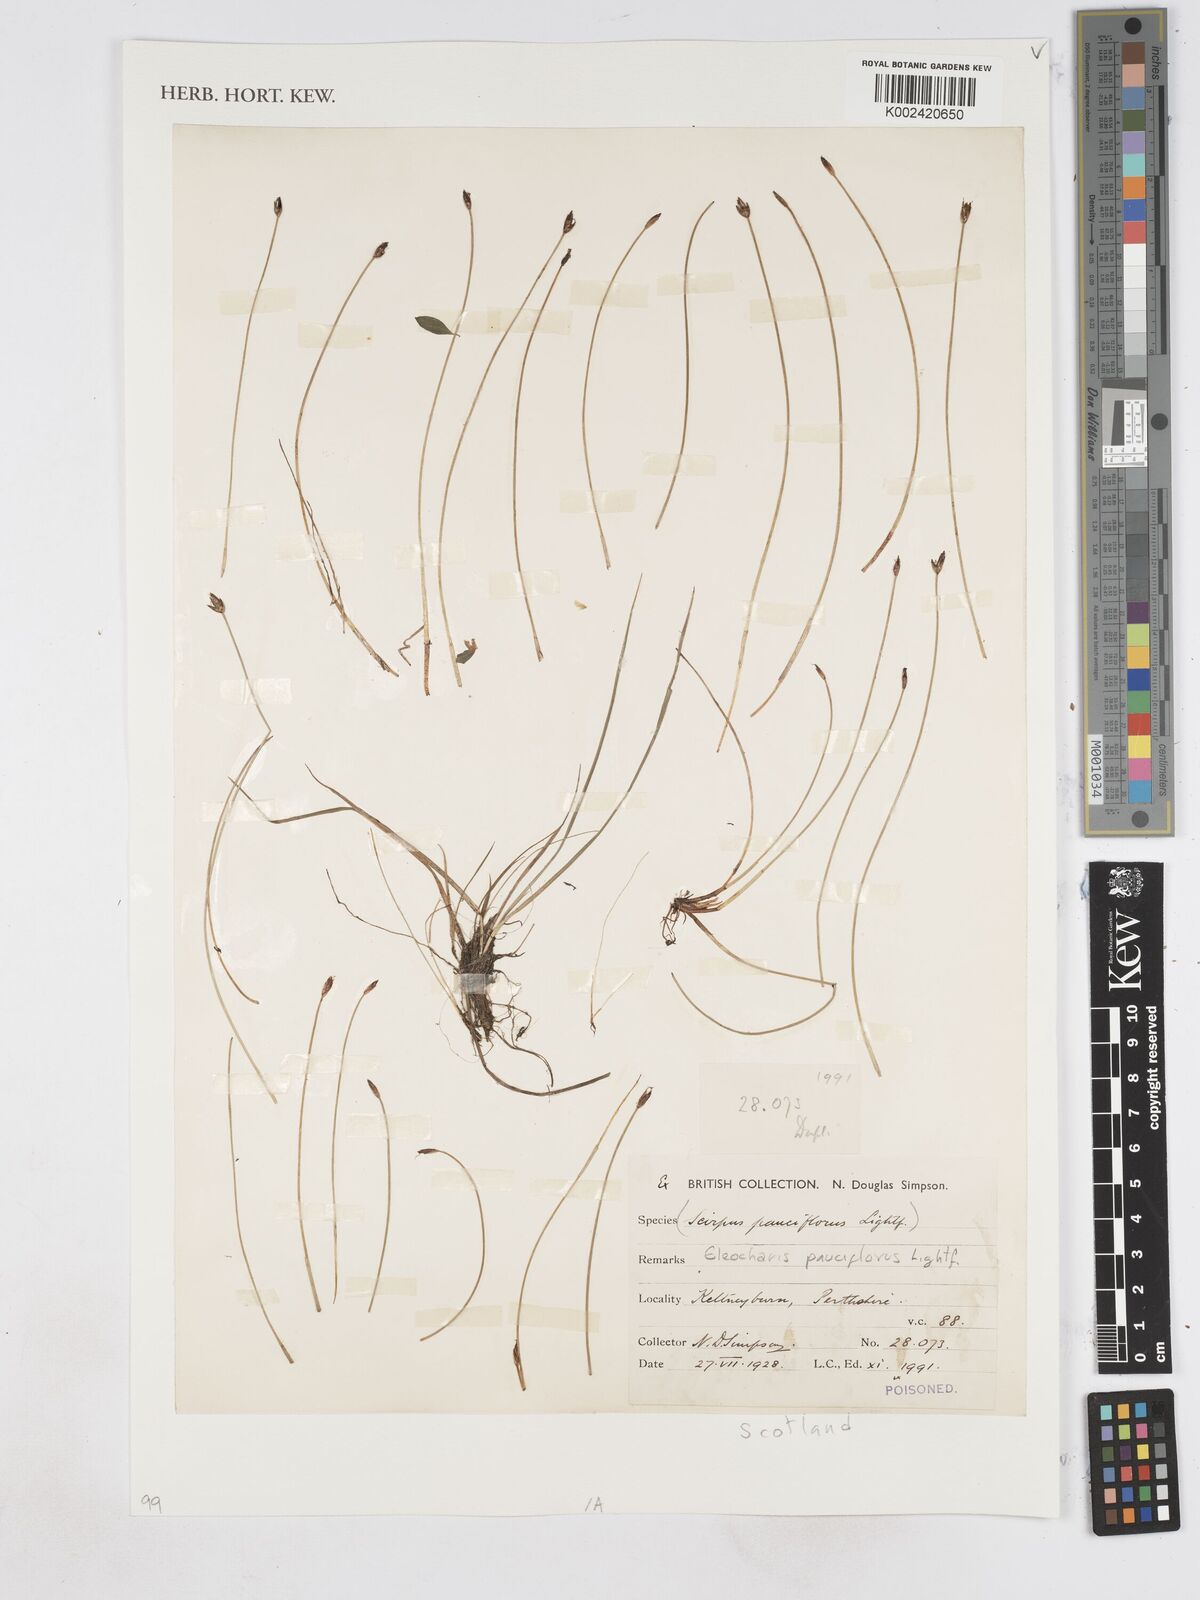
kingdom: Plantae
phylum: Tracheophyta
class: Liliopsida
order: Poales
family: Cyperaceae
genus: Eleocharis
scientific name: Eleocharis quinqueflora
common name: Few-flowered spike-rush
